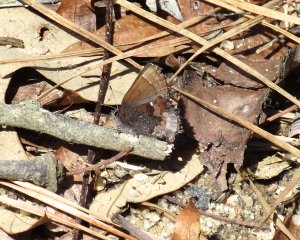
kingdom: Animalia
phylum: Arthropoda
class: Insecta
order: Lepidoptera
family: Lycaenidae
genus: Incisalia
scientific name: Incisalia henrici
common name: Henry's Elfin
